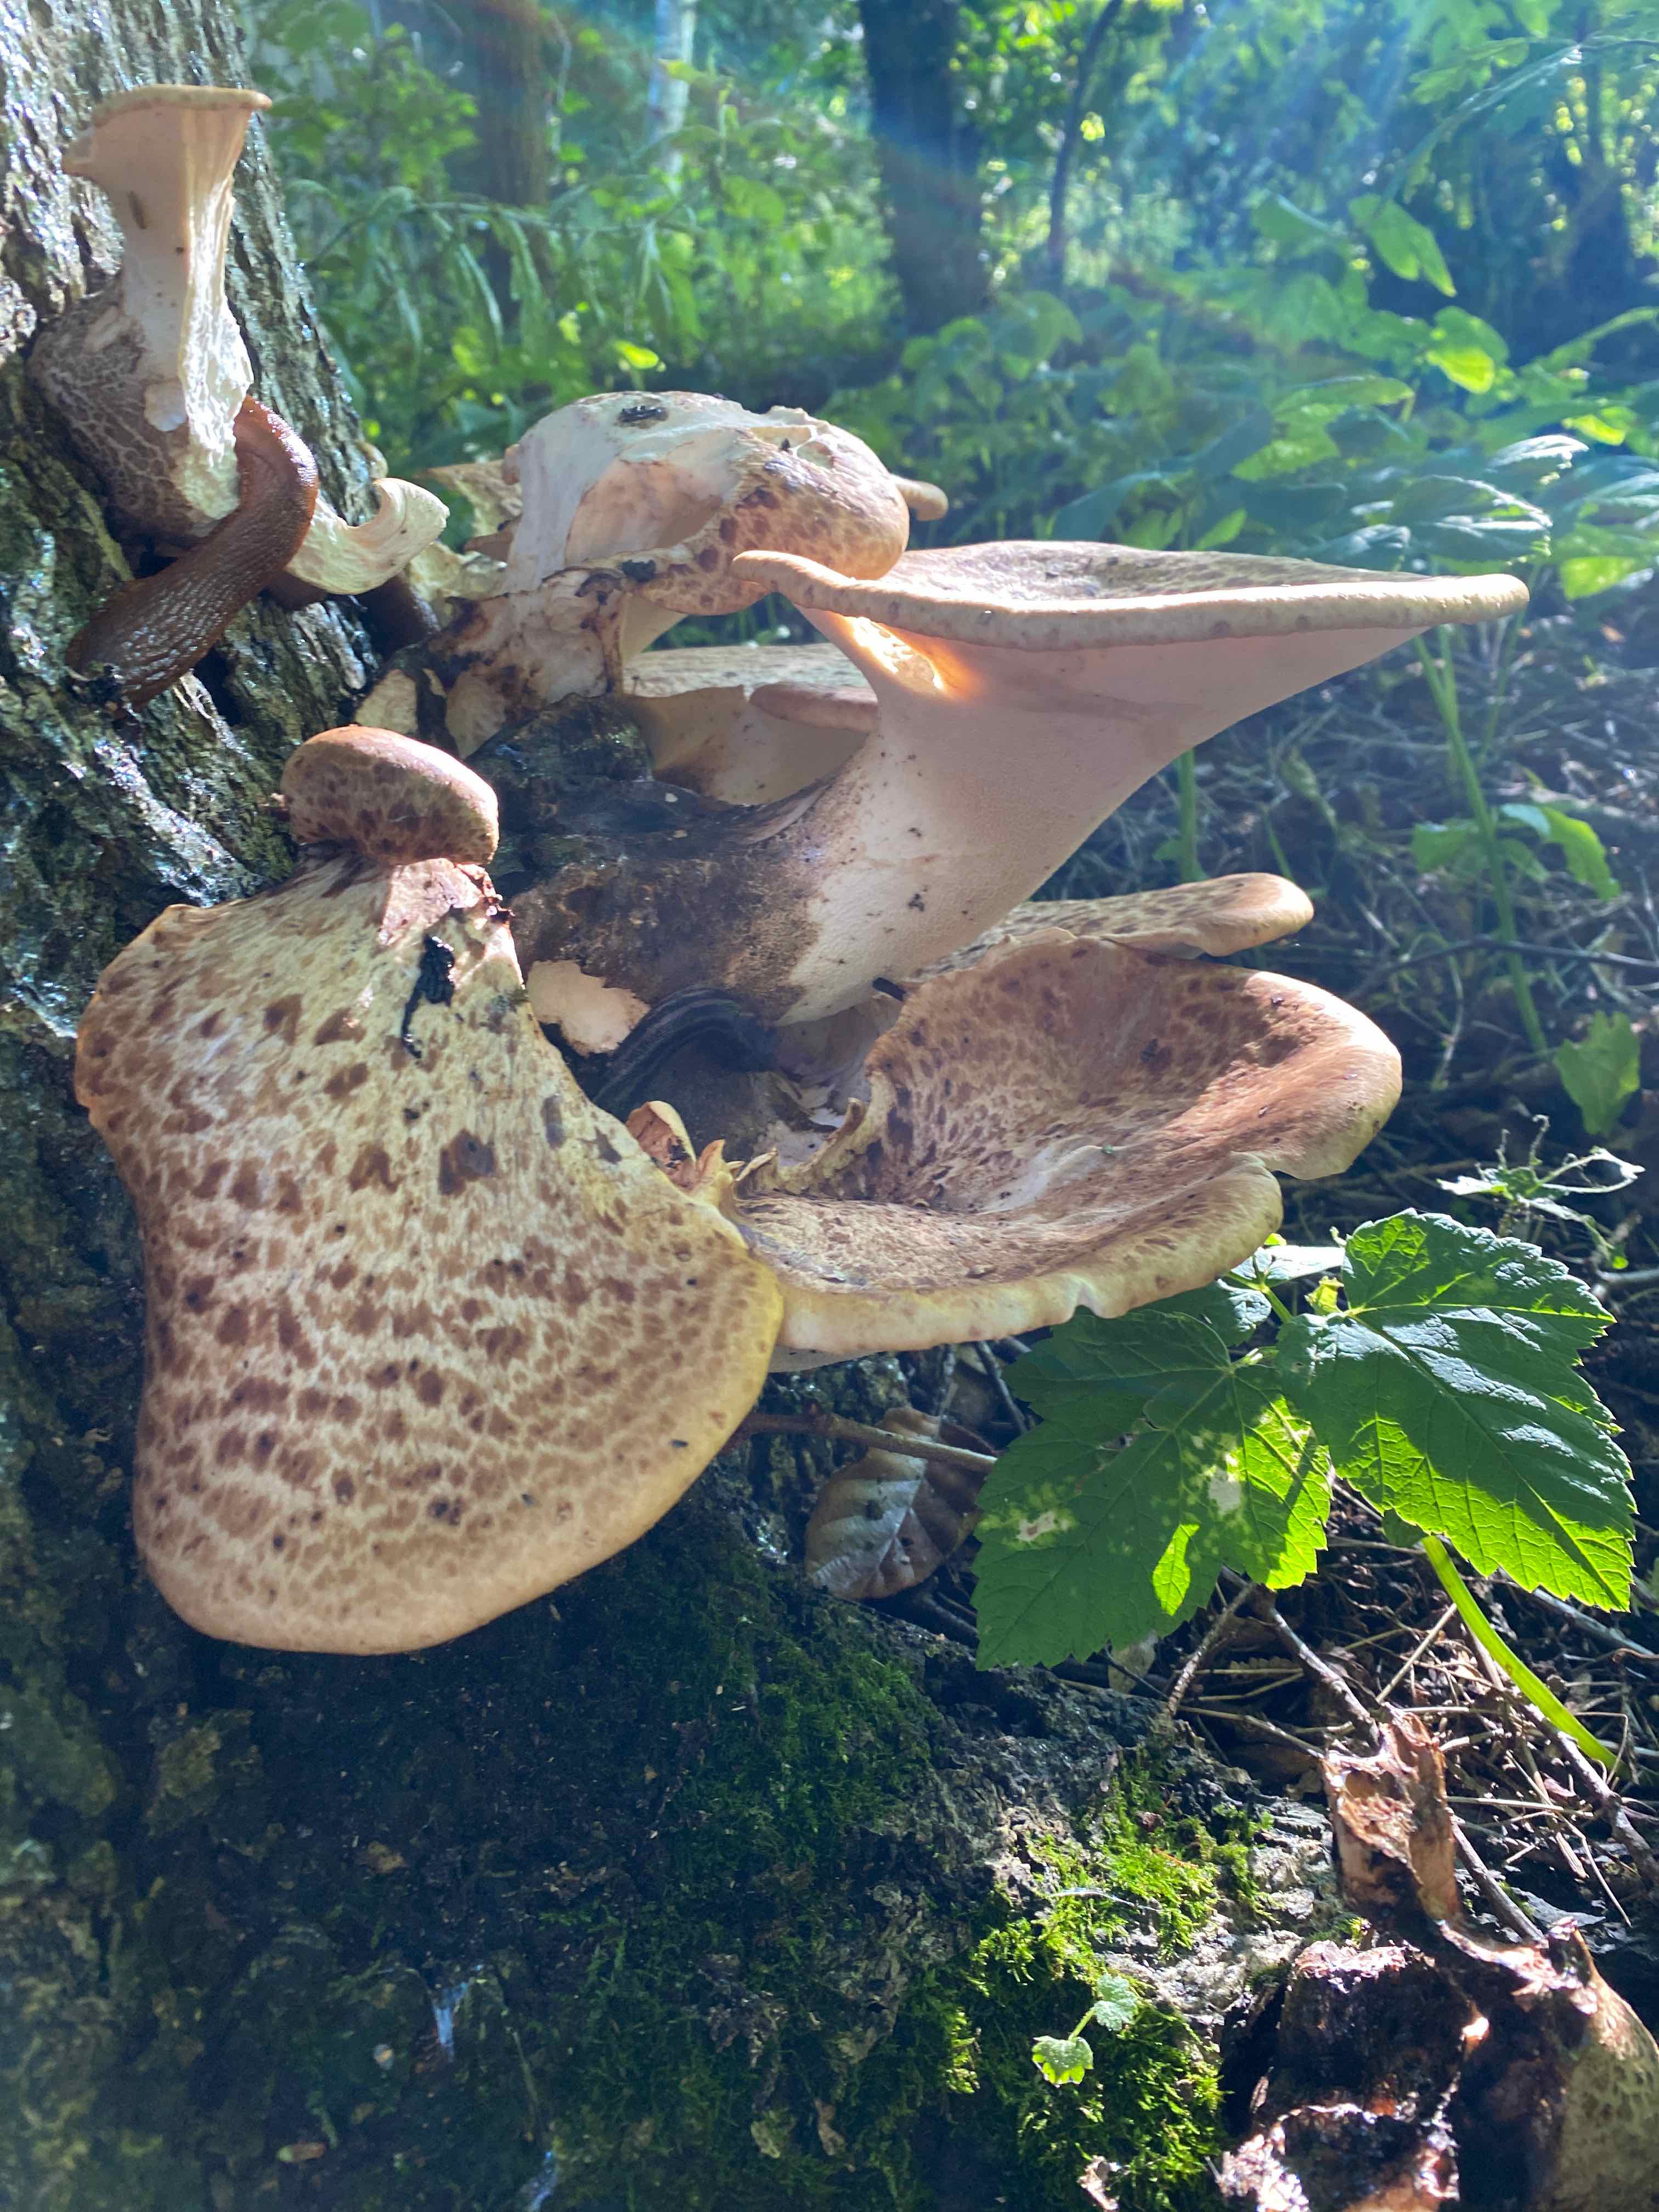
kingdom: Fungi
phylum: Basidiomycota
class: Agaricomycetes
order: Polyporales
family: Polyporaceae
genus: Cerioporus
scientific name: Cerioporus squamosus
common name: skællet stilkporesvamp
